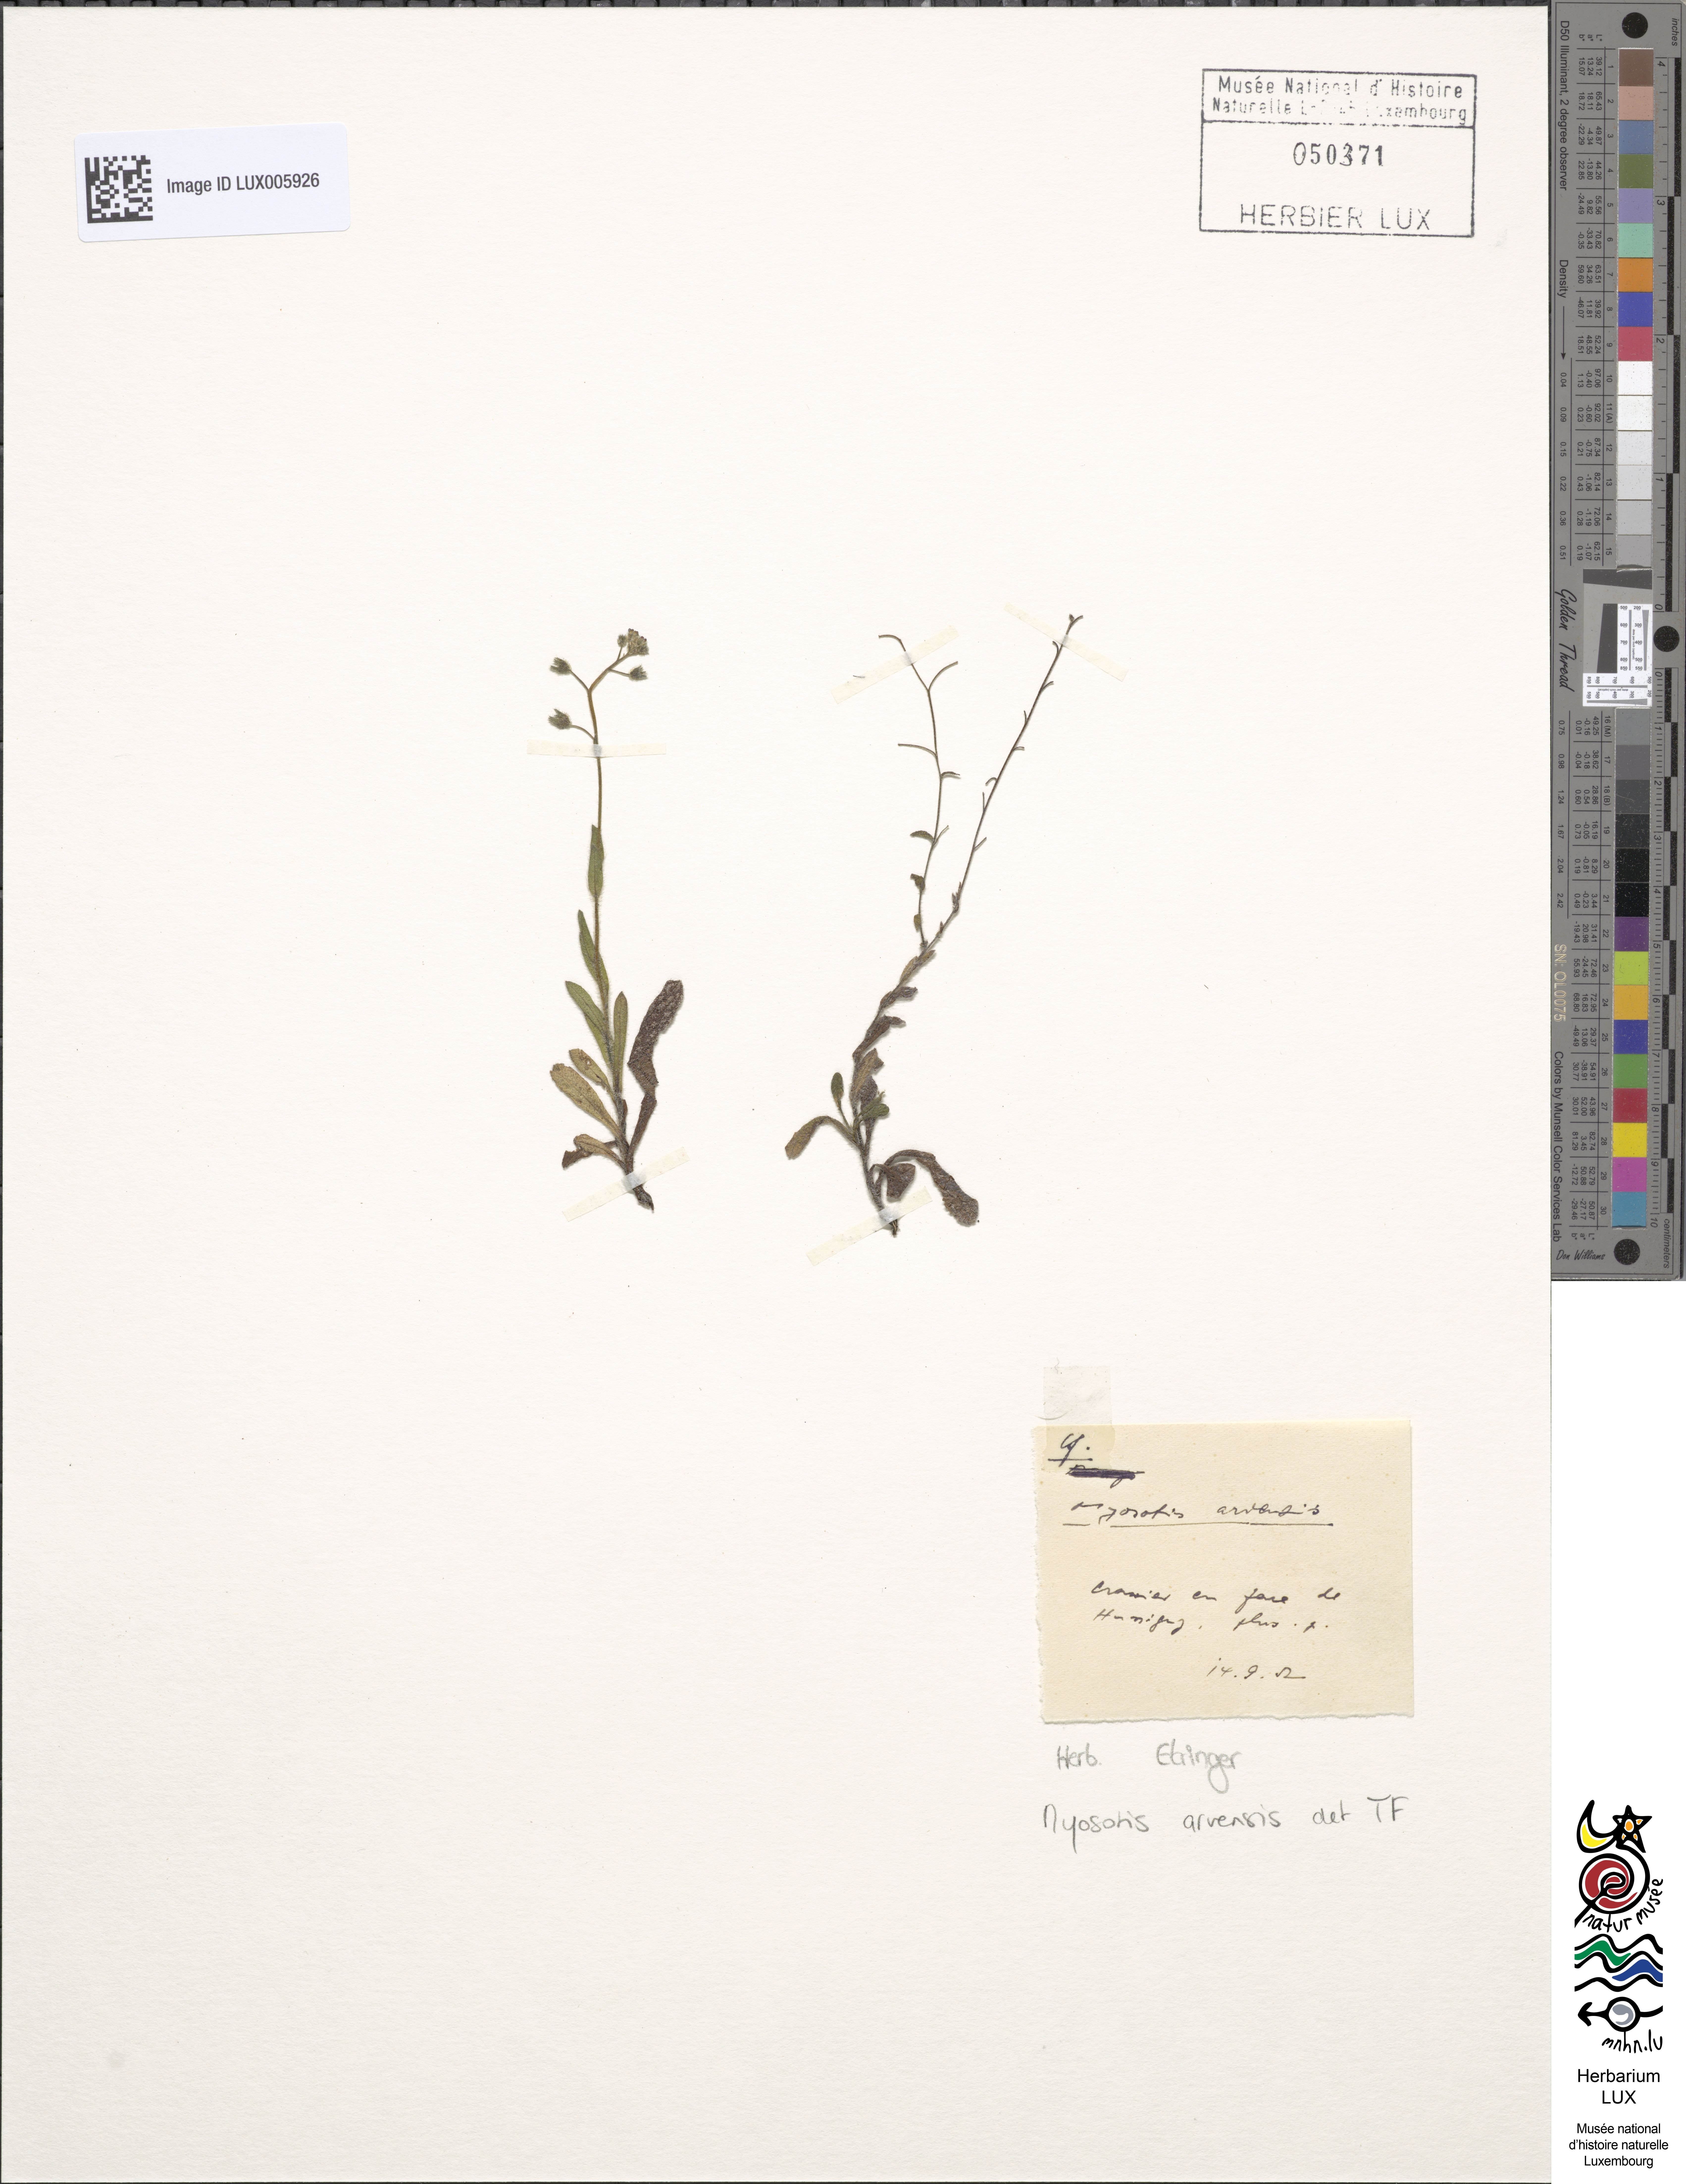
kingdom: Plantae
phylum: Tracheophyta
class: Magnoliopsida
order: Boraginales
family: Boraginaceae
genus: Myosotis
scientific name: Myosotis arvensis
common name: Field forget-me-not
